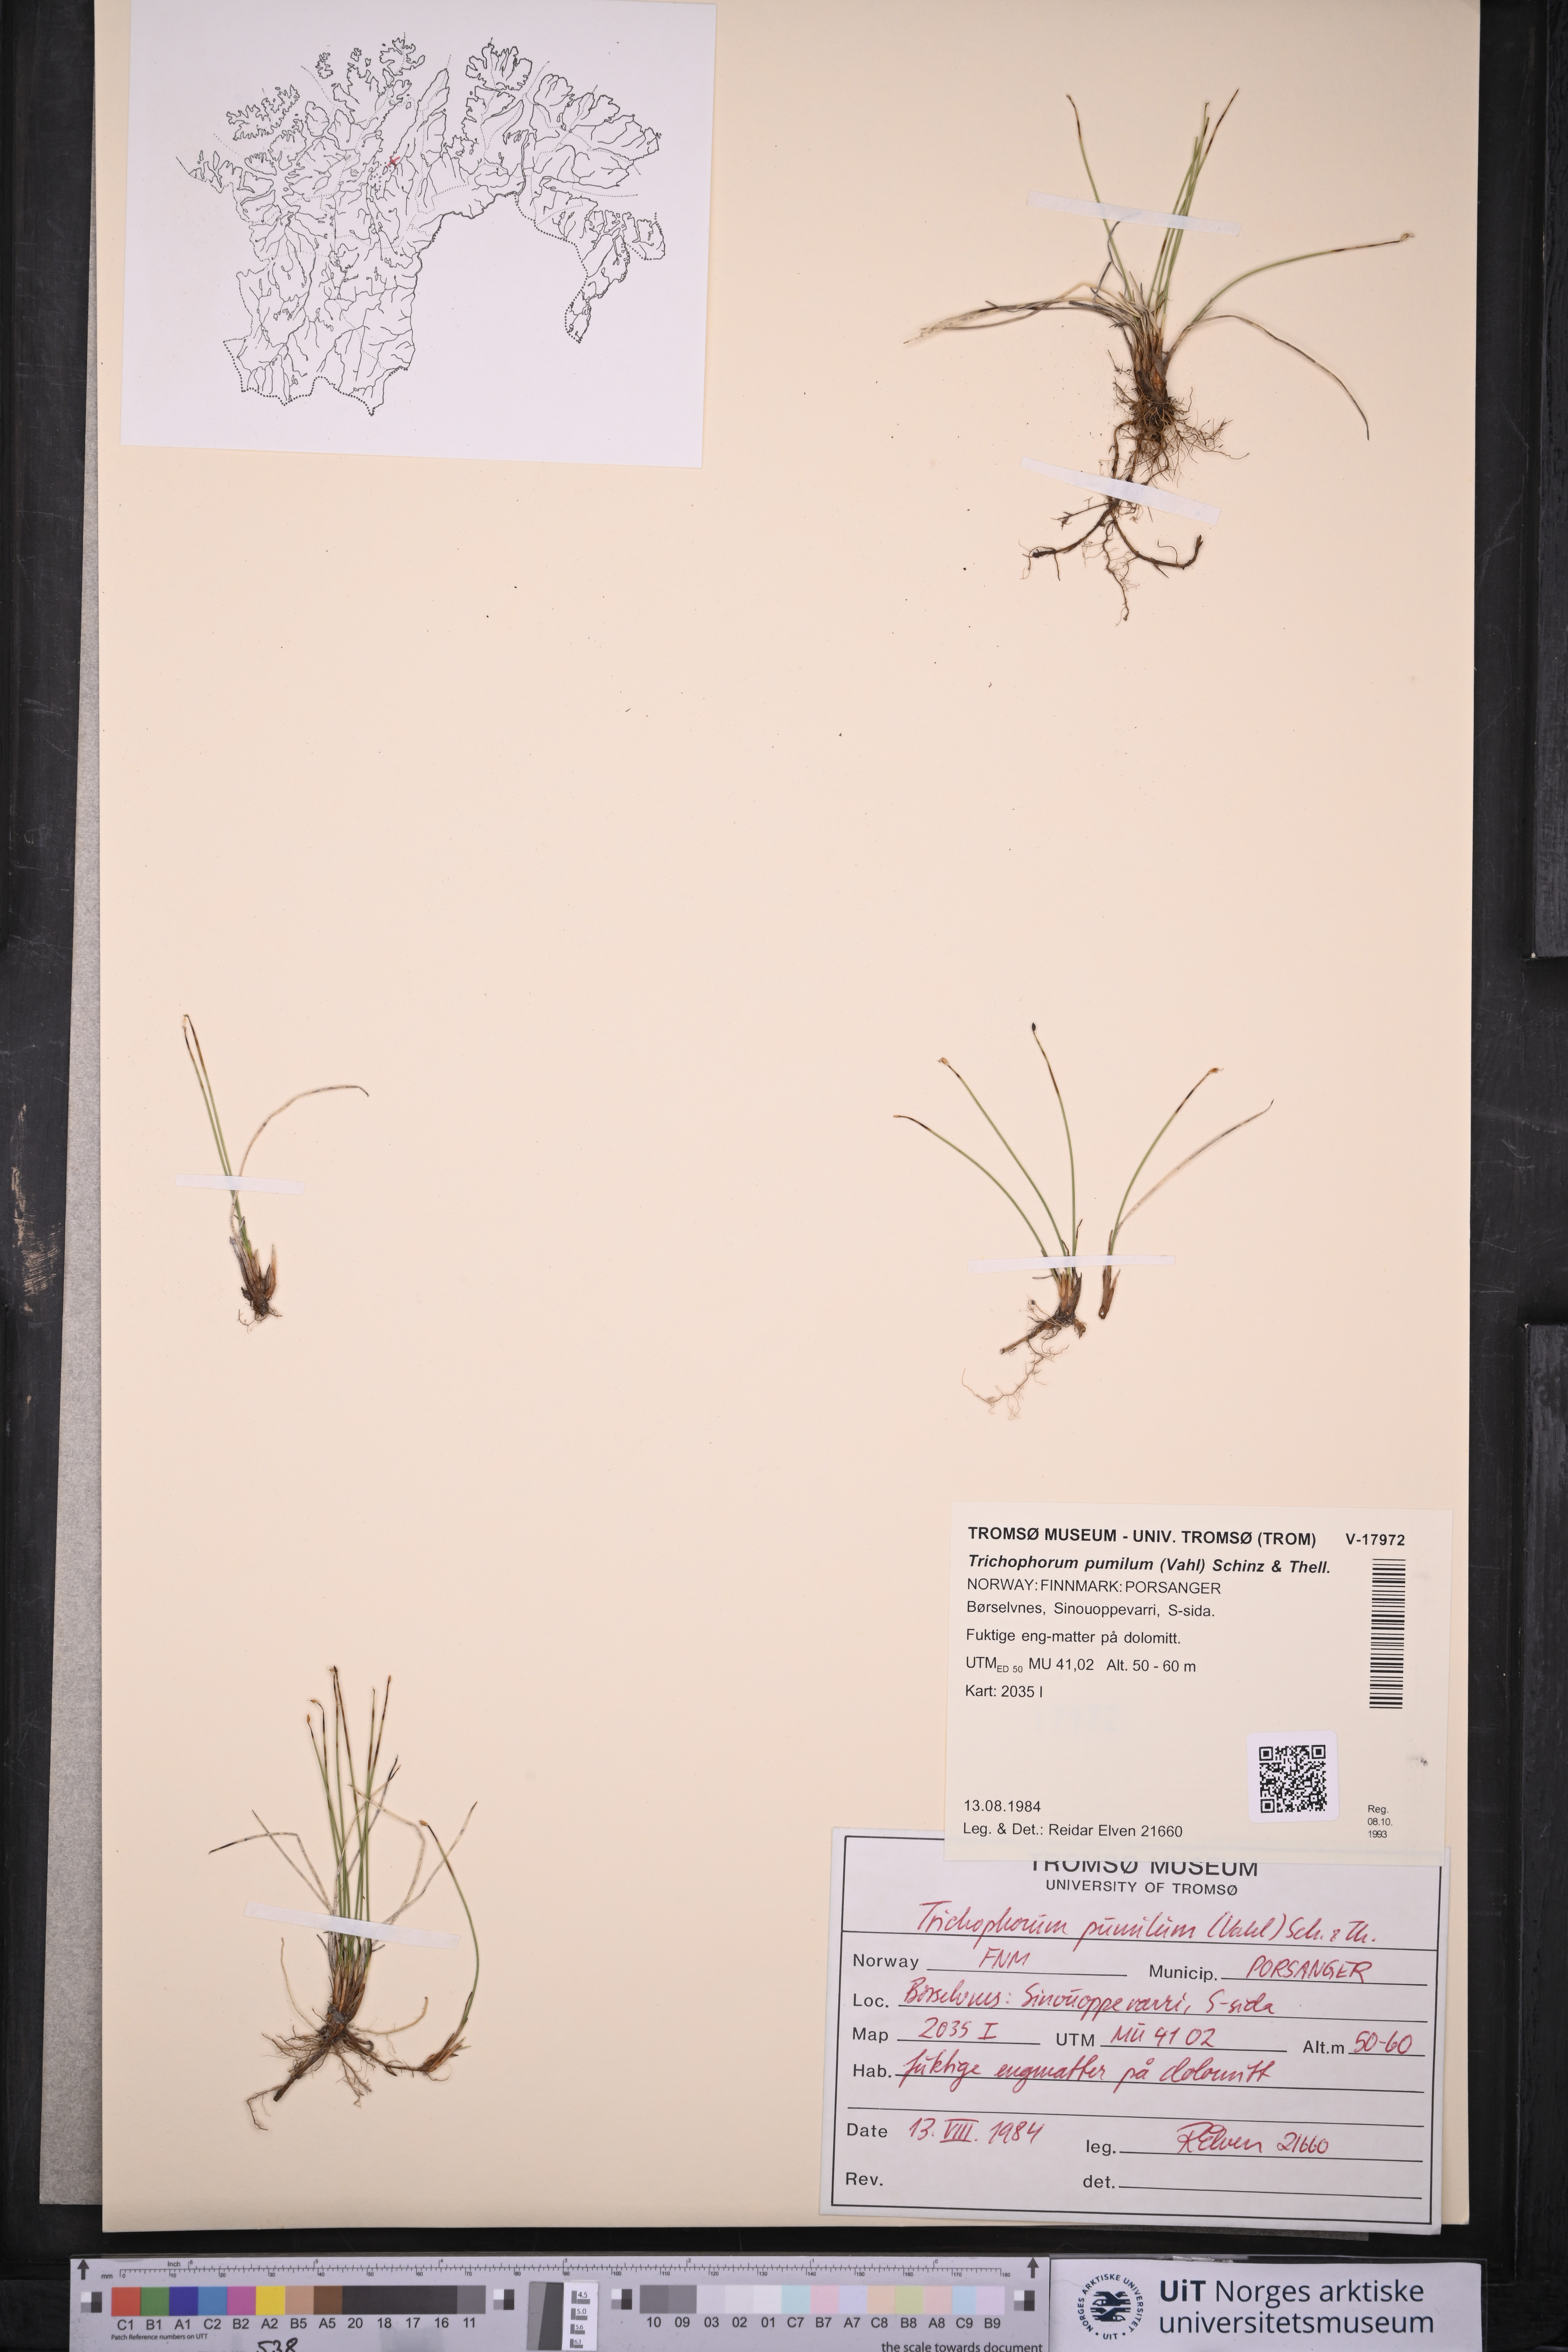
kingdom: Plantae
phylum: Tracheophyta
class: Liliopsida
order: Poales
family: Cyperaceae
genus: Trichophorum
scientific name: Trichophorum pumilum
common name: Rolland's bulrush
